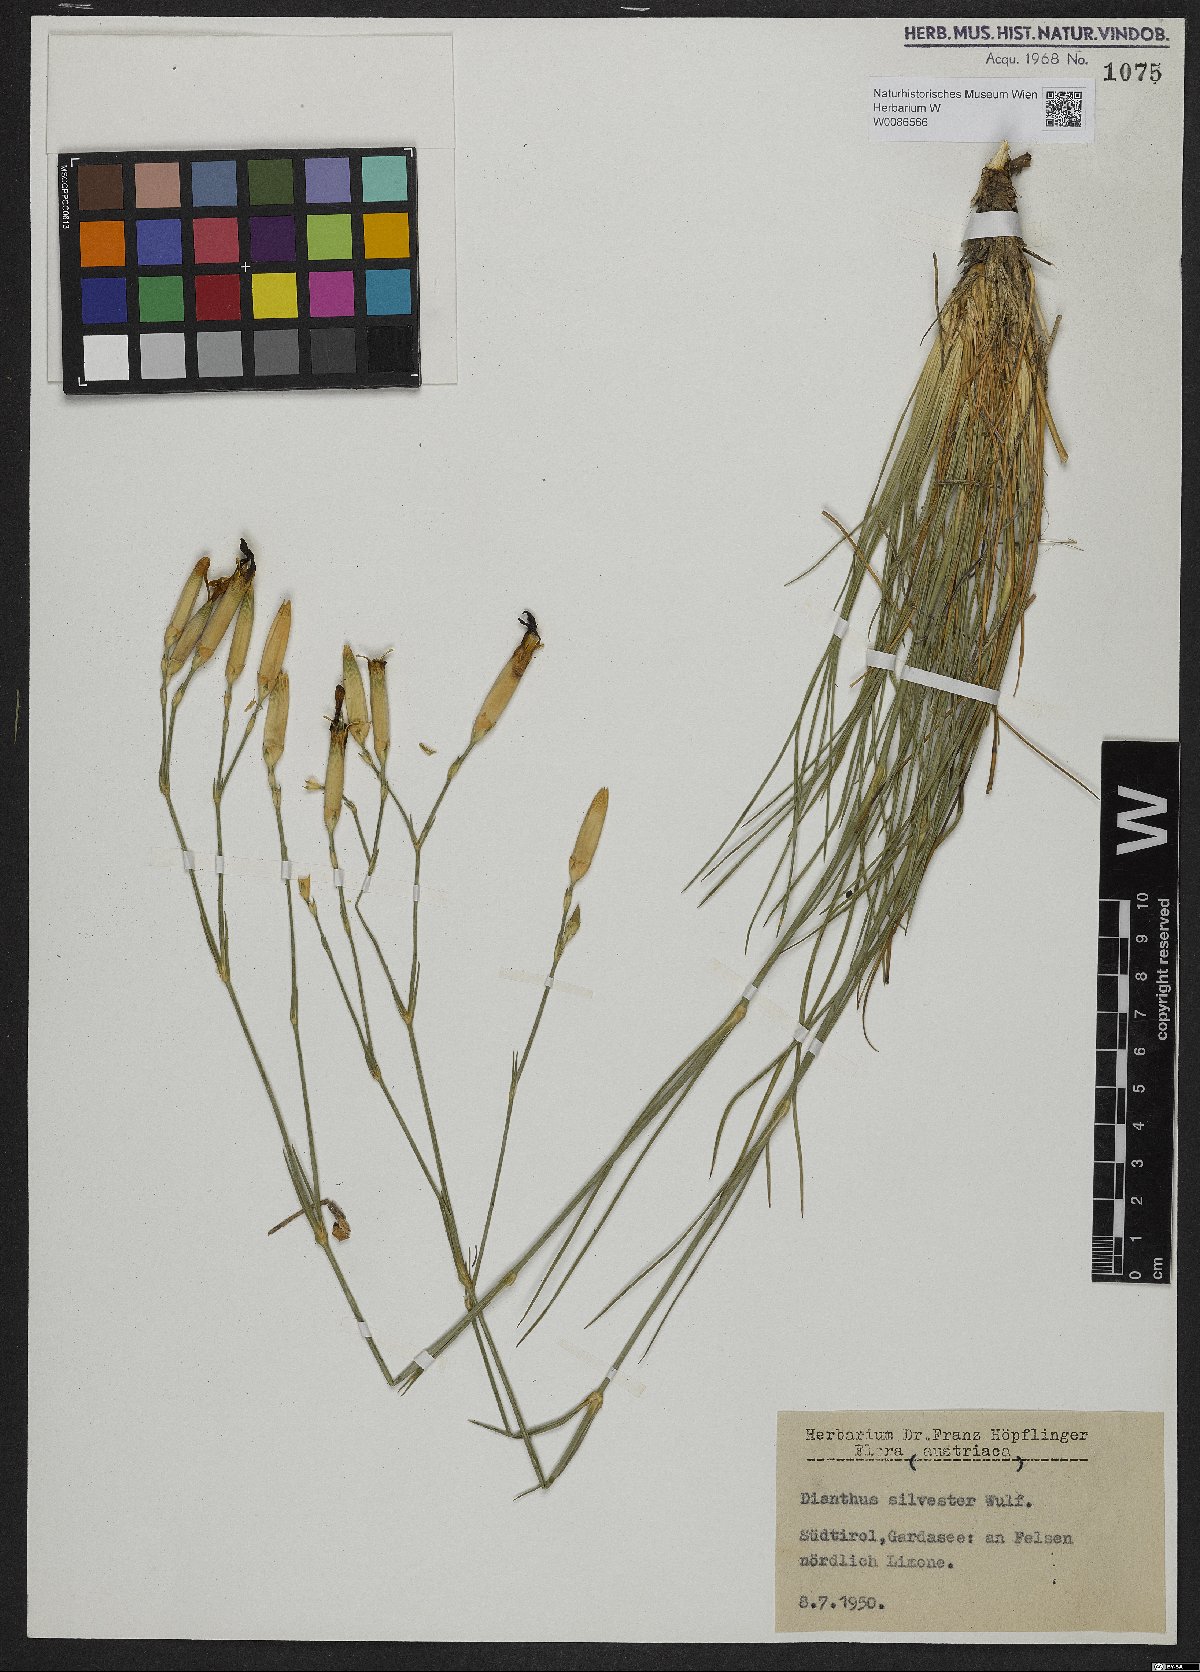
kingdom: Plantae
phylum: Tracheophyta
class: Magnoliopsida
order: Caryophyllales
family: Caryophyllaceae
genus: Dianthus
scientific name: Dianthus sylvestris
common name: Wood pink
